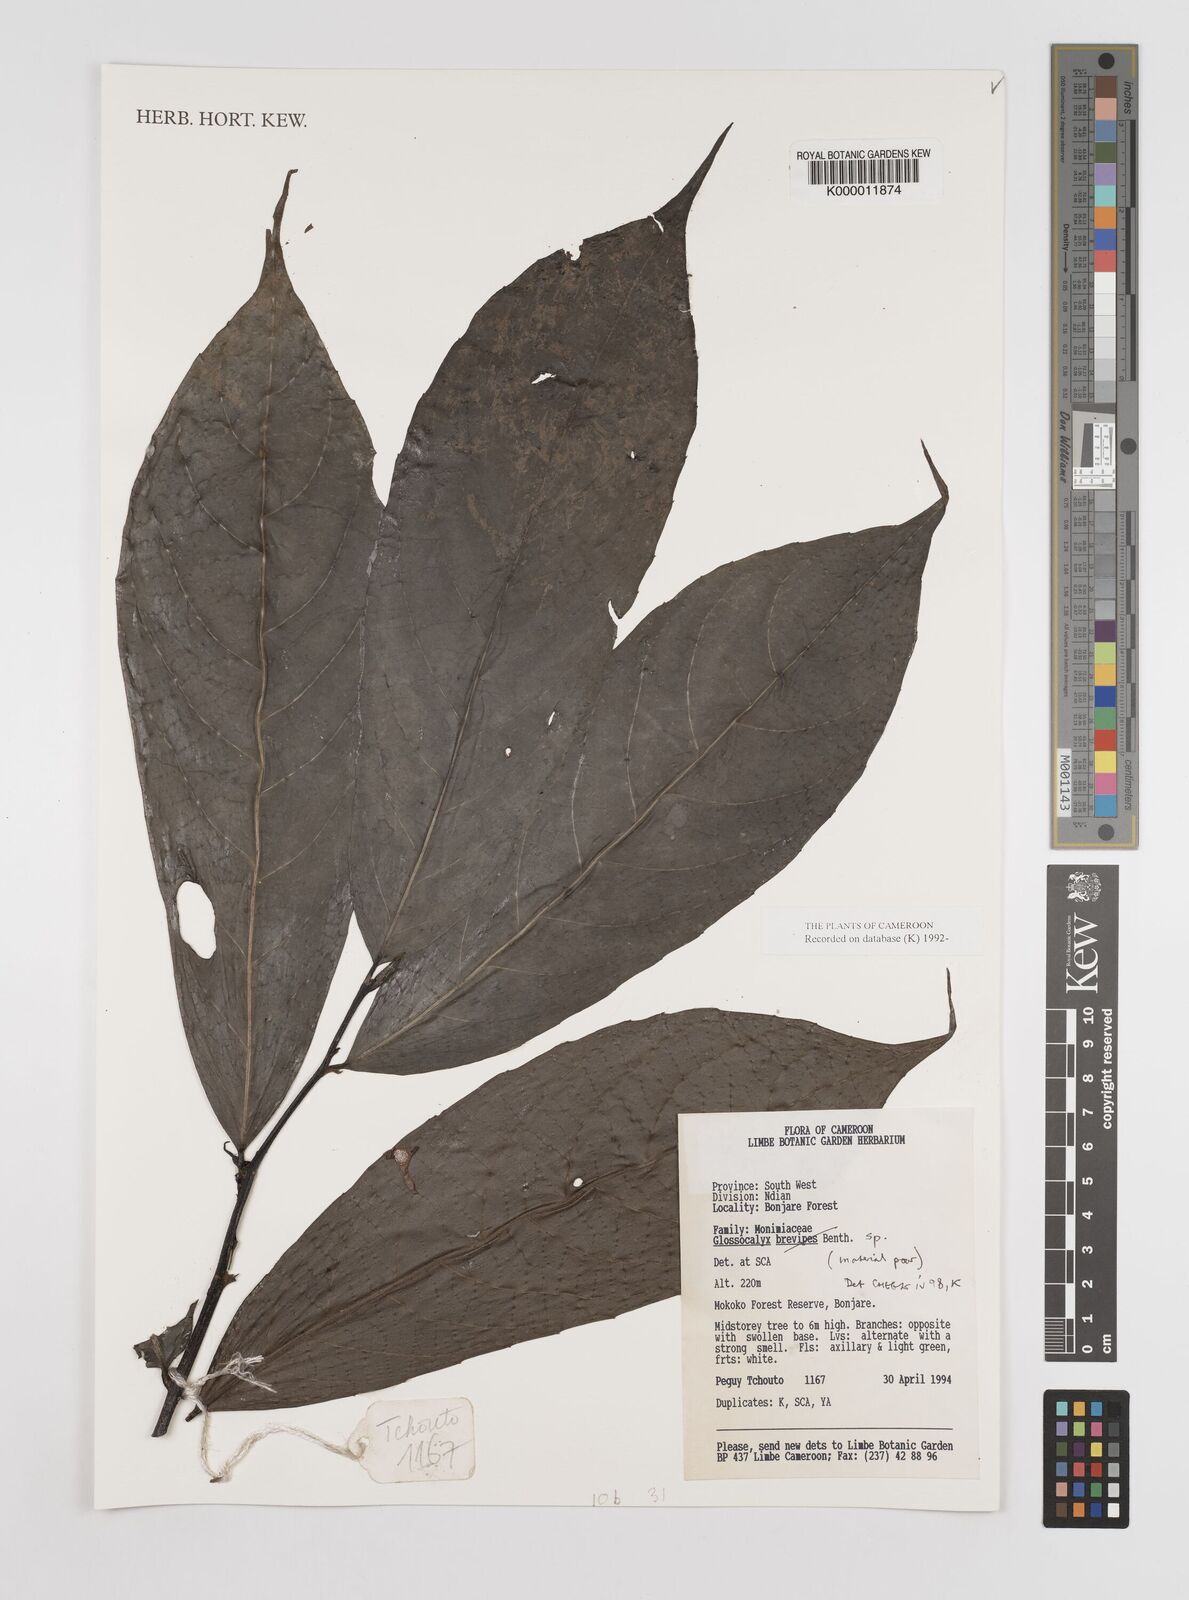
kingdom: Plantae
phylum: Tracheophyta
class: Magnoliopsida
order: Laurales
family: Siparunaceae
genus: Glossocalyx
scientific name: Glossocalyx longicuspis
